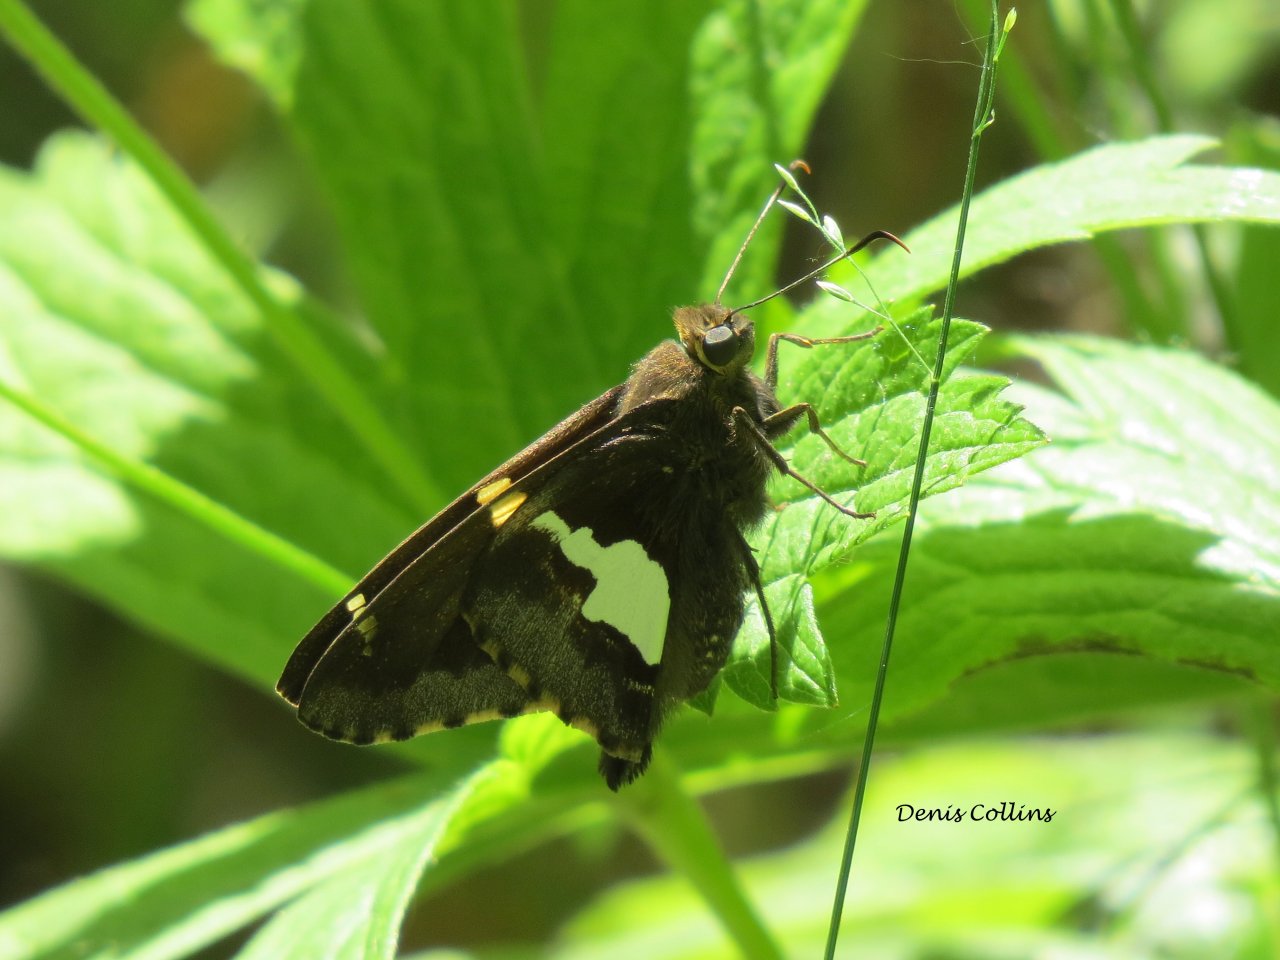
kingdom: Animalia
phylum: Arthropoda
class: Insecta
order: Lepidoptera
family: Hesperiidae
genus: Epargyreus
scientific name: Epargyreus clarus
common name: Silver-spotted Skipper
